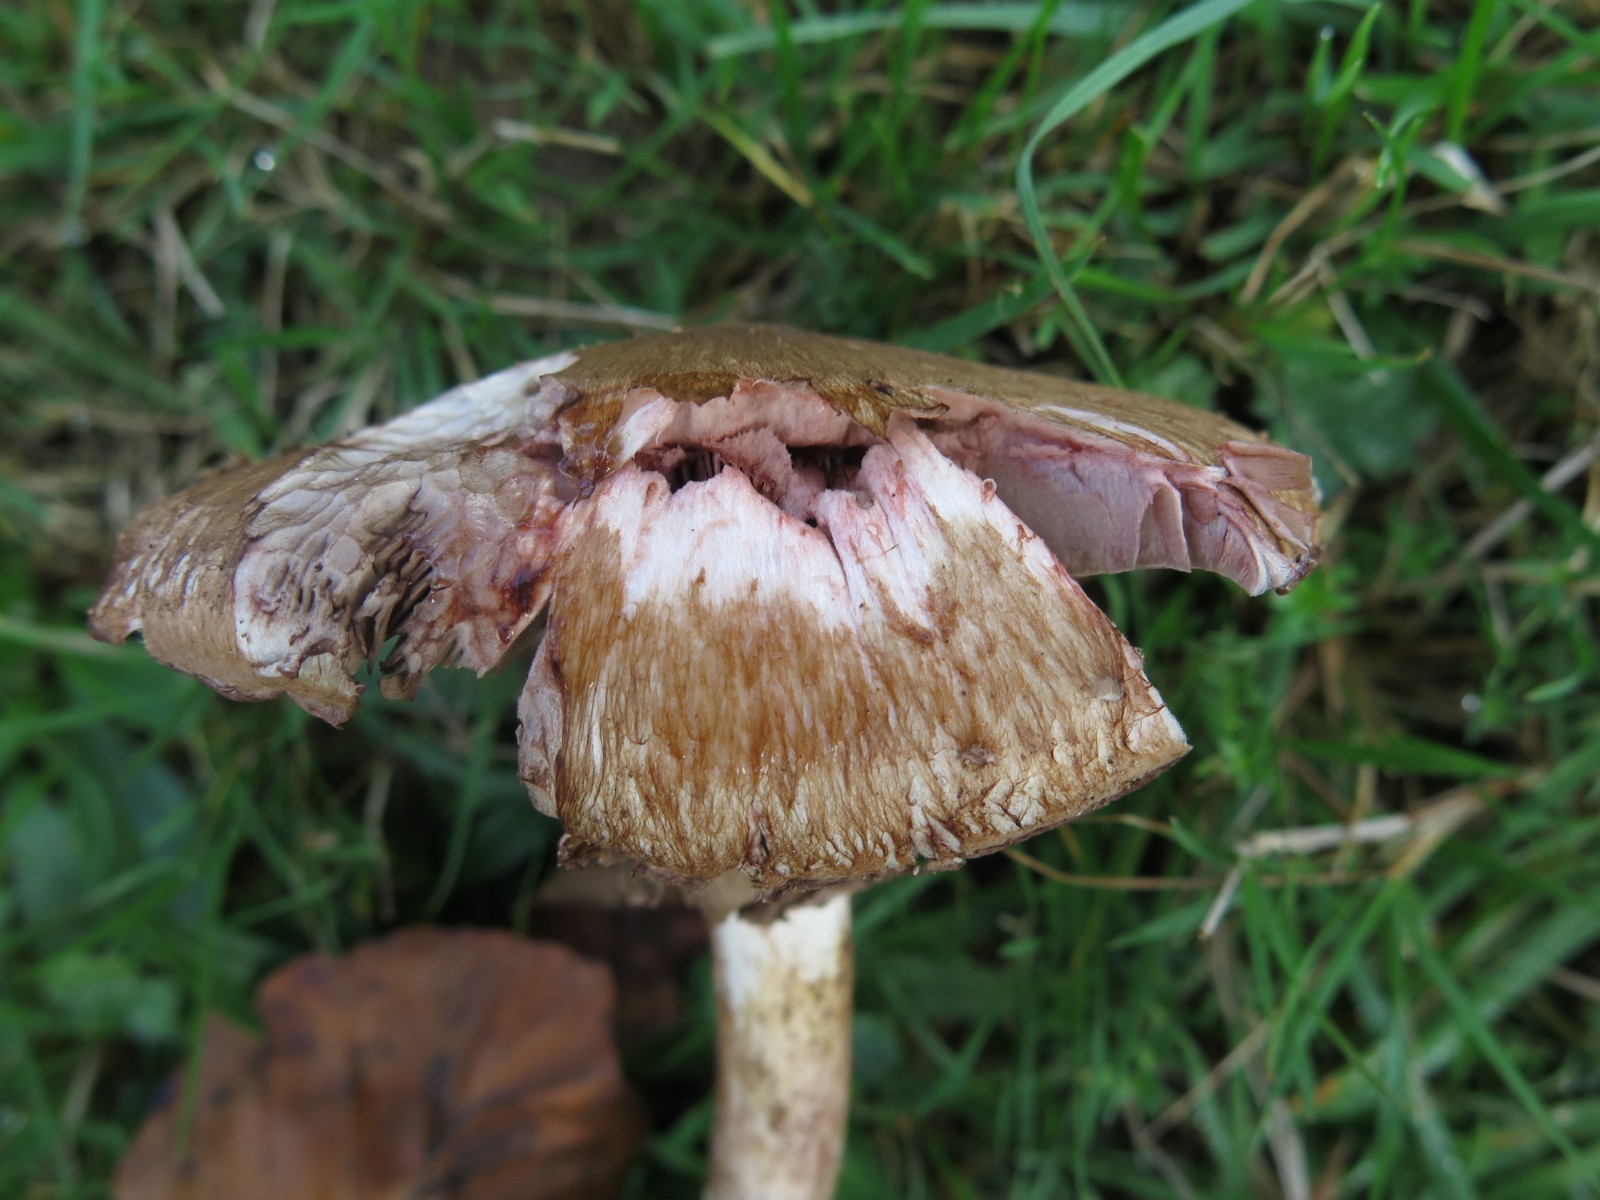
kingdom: Fungi
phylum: Basidiomycota
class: Agaricomycetes
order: Agaricales
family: Agaricaceae
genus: Agaricus
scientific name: Agaricus langei
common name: stor blod-champignon
